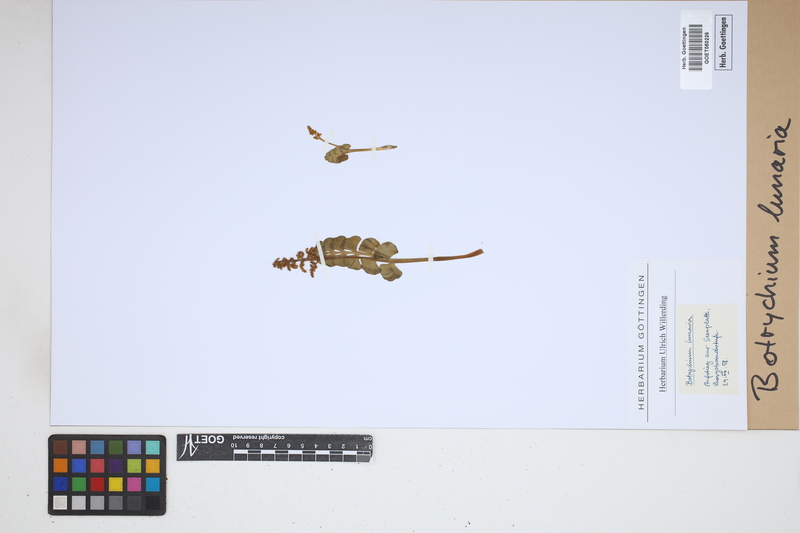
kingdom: Plantae
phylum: Tracheophyta
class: Polypodiopsida
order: Ophioglossales
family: Ophioglossaceae
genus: Botrychium
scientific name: Botrychium lunaria
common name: Moonwort
